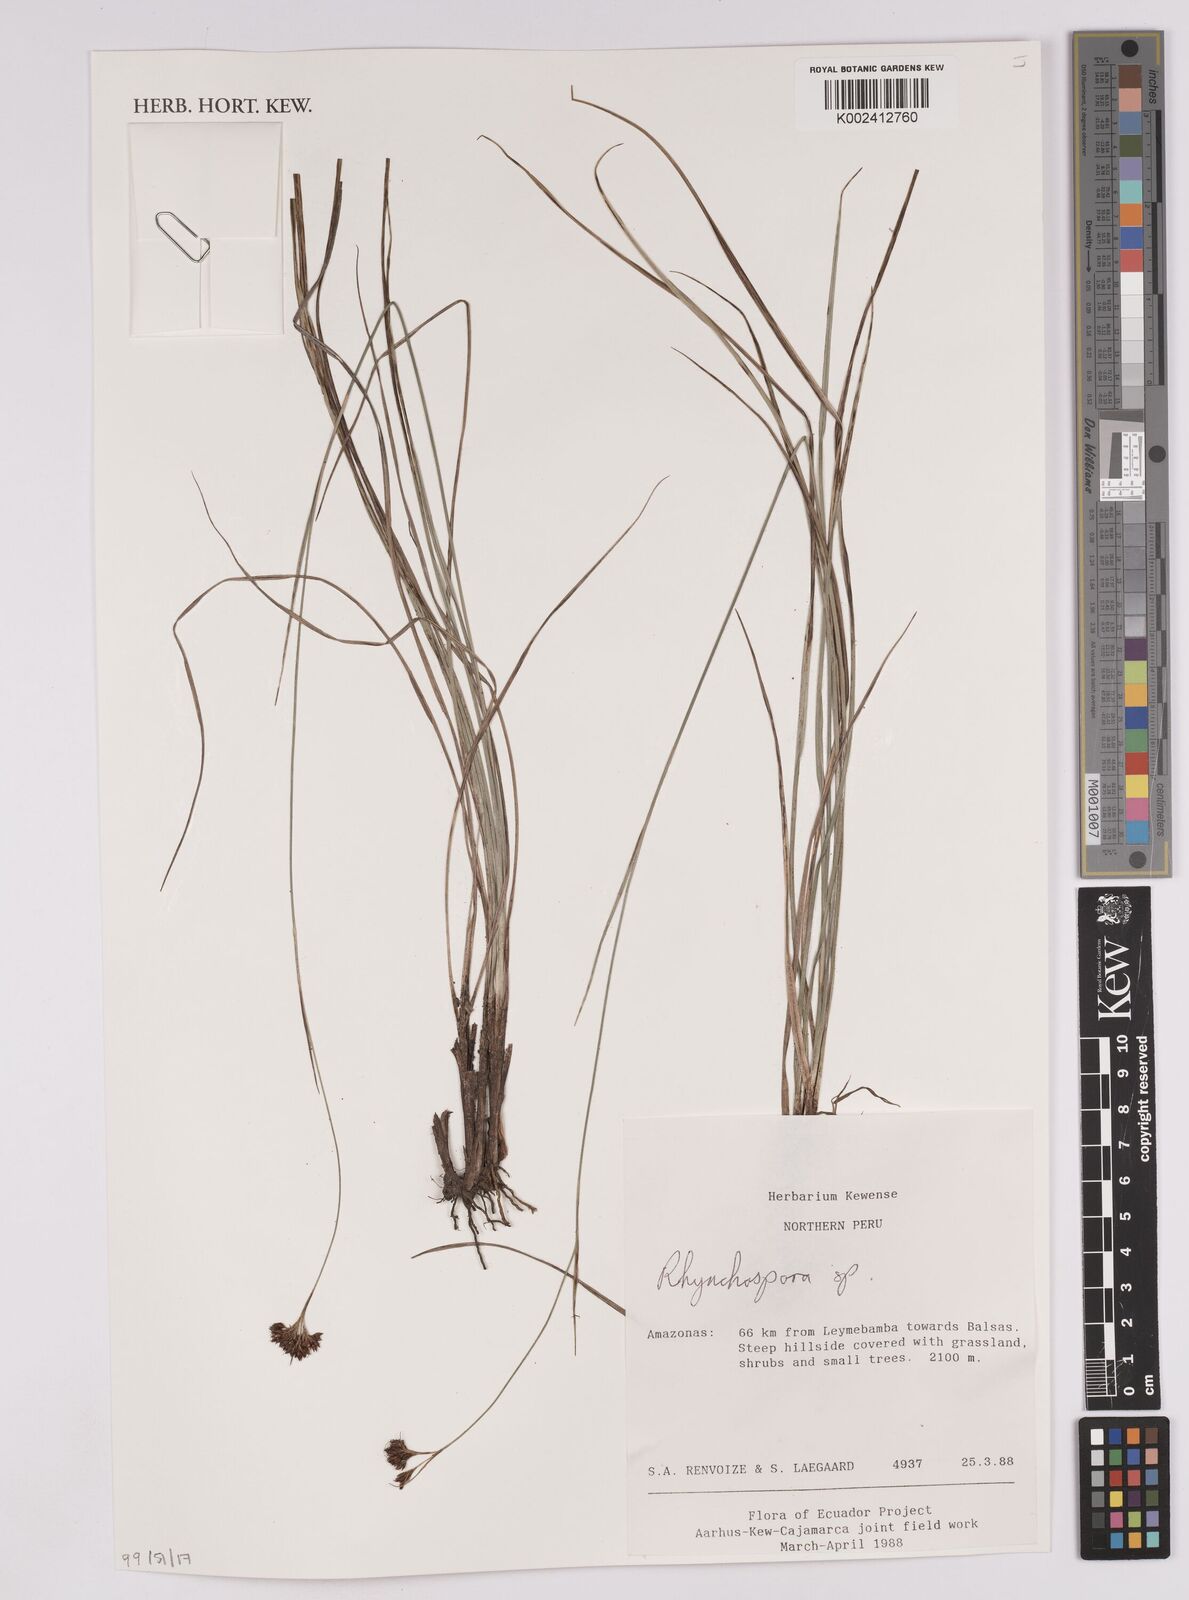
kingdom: Plantae
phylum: Tracheophyta
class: Liliopsida
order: Poales
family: Cyperaceae
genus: Rhynchospora
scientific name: Rhynchospora
